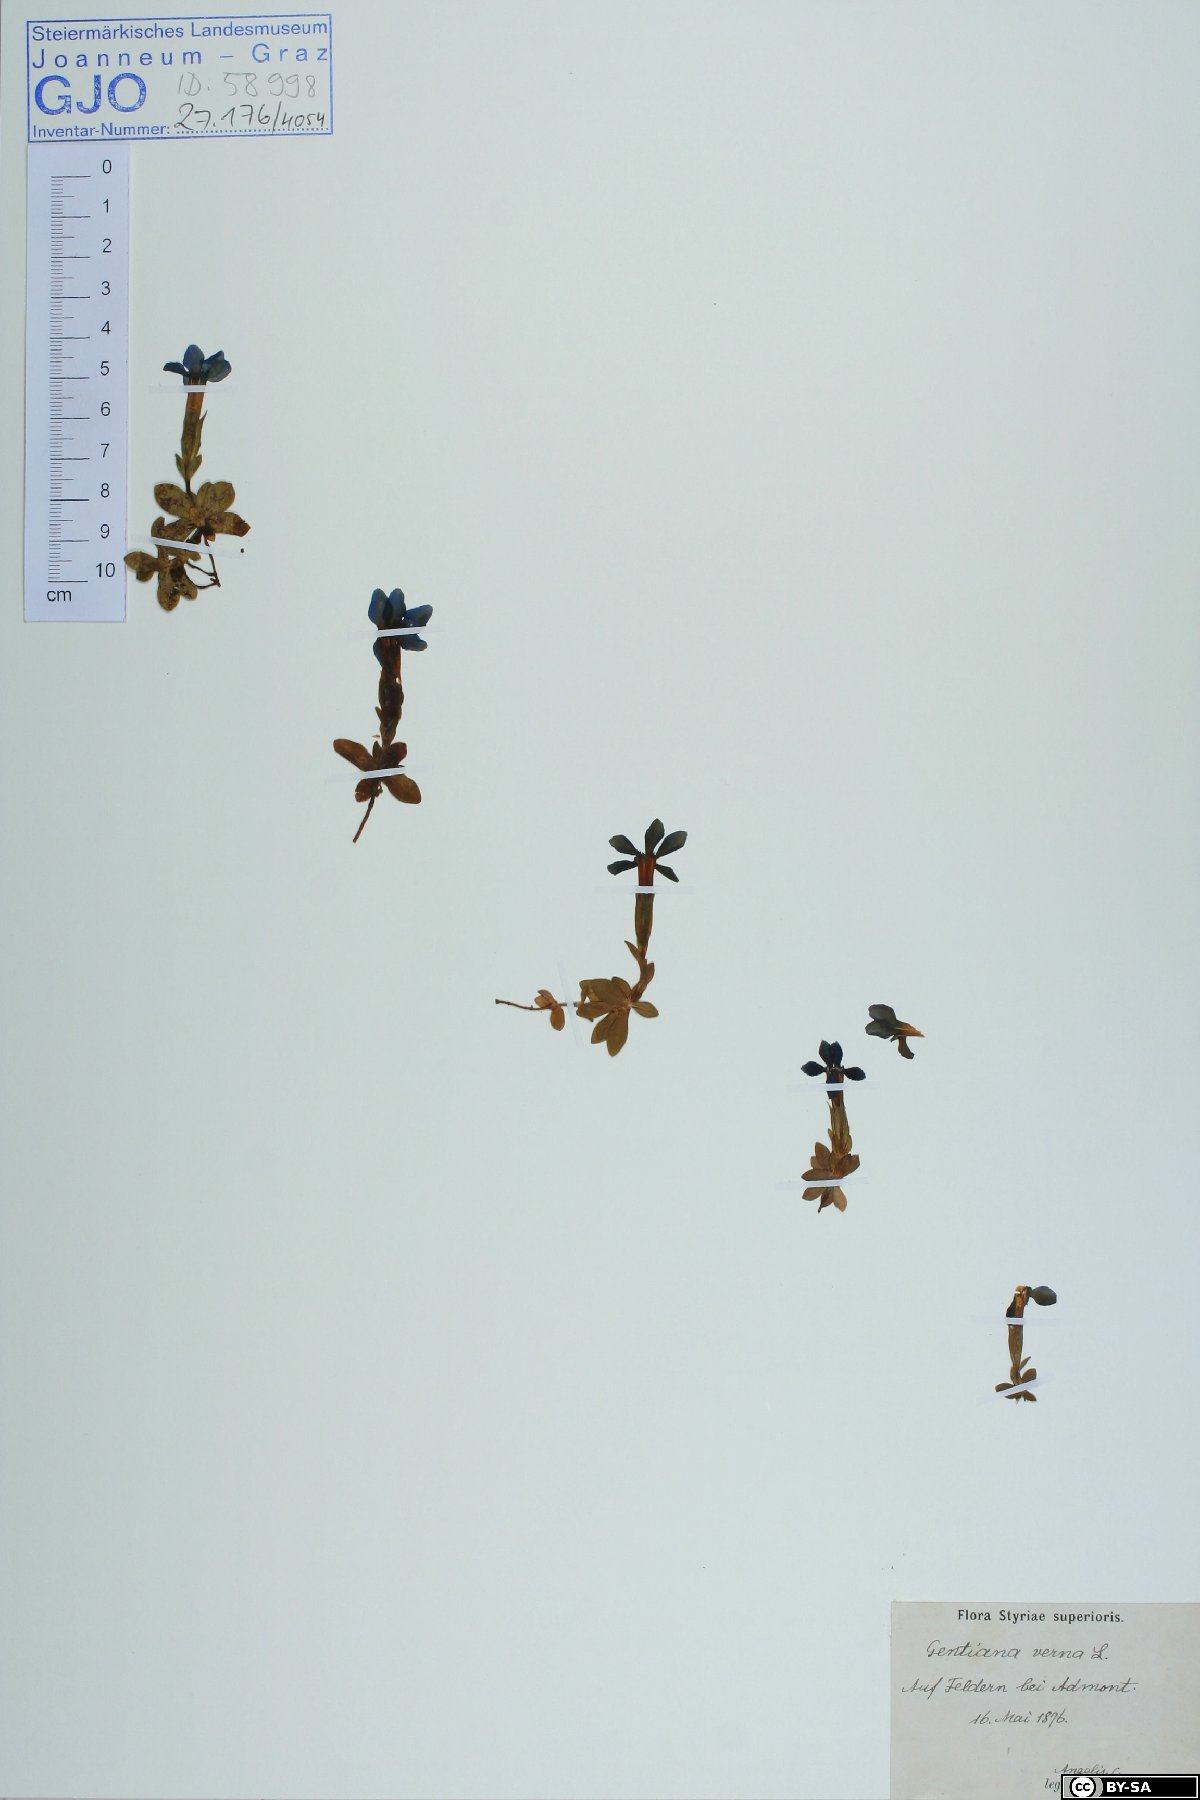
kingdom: Plantae
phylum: Tracheophyta
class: Magnoliopsida
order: Gentianales
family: Gentianaceae
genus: Gentiana
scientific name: Gentiana verna
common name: Spring gentian
